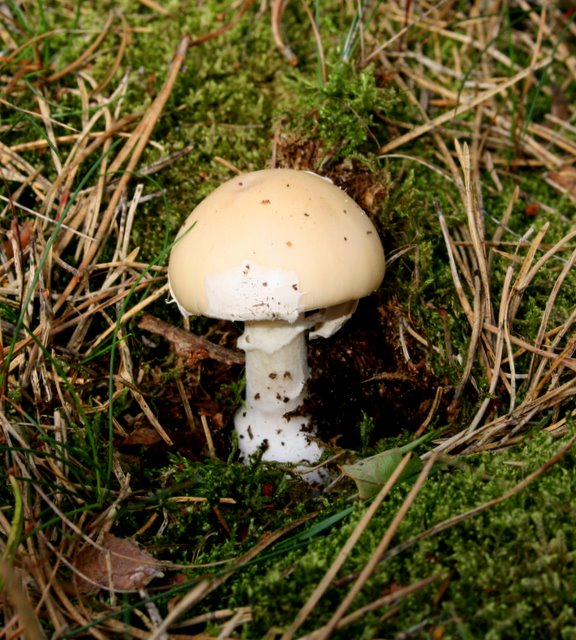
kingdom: Fungi
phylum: Basidiomycota
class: Agaricomycetes
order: Agaricales
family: Amanitaceae
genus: Amanita
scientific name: Amanita gemmata
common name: okkergul fluesvamp
